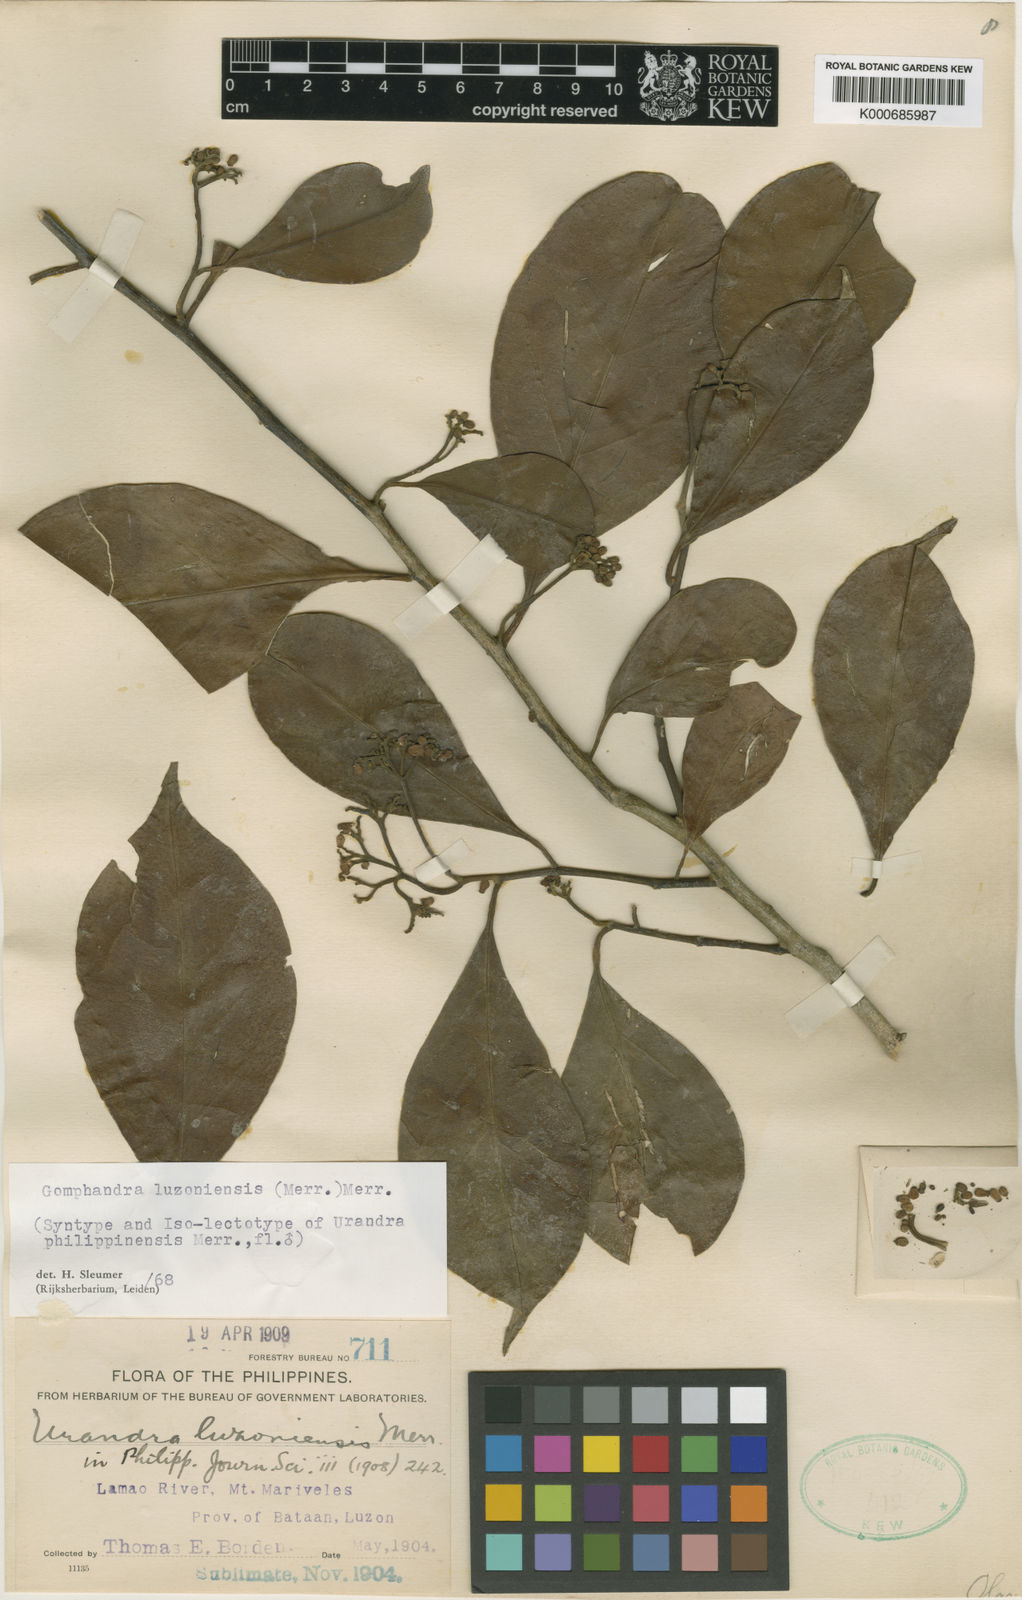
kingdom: Plantae
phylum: Tracheophyta
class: Magnoliopsida
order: Cardiopteridales
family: Stemonuraceae
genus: Gomphandra
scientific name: Gomphandra luzoniensis
